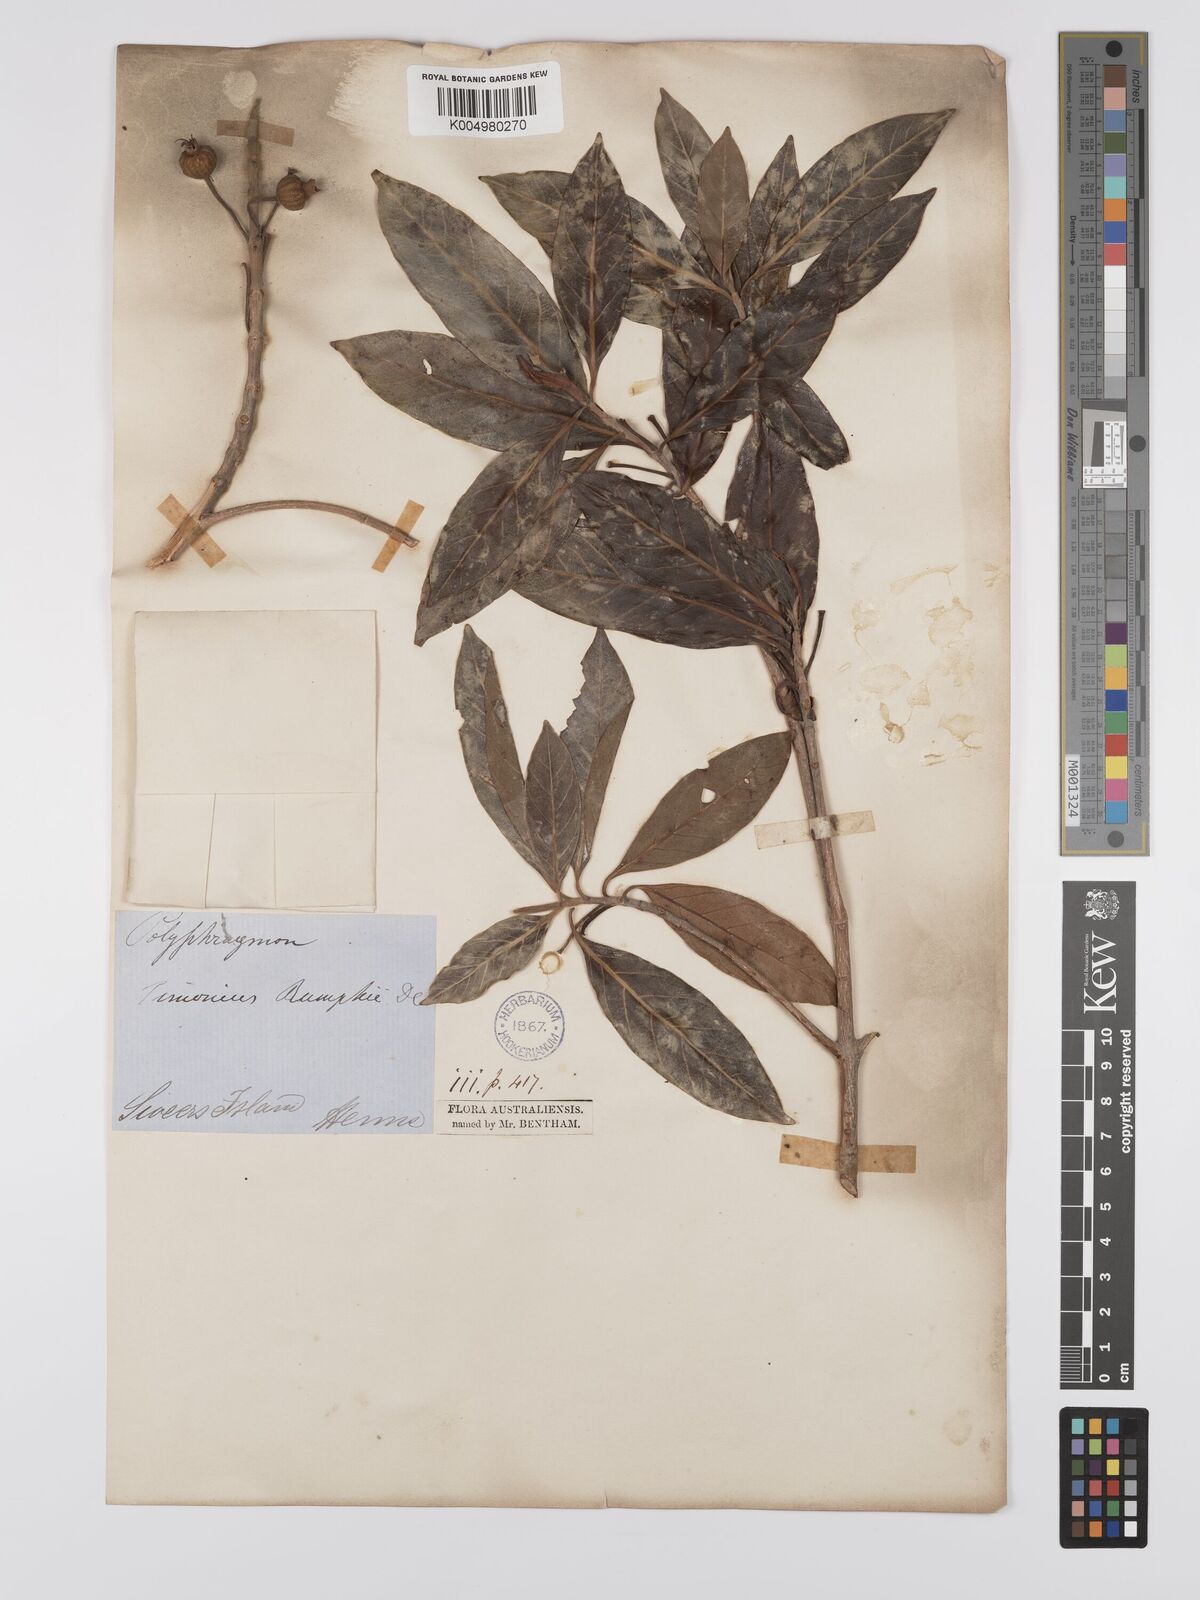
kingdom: Plantae
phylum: Tracheophyta
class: Magnoliopsida
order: Gentianales
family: Rubiaceae
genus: Timonius
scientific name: Timonius timon
